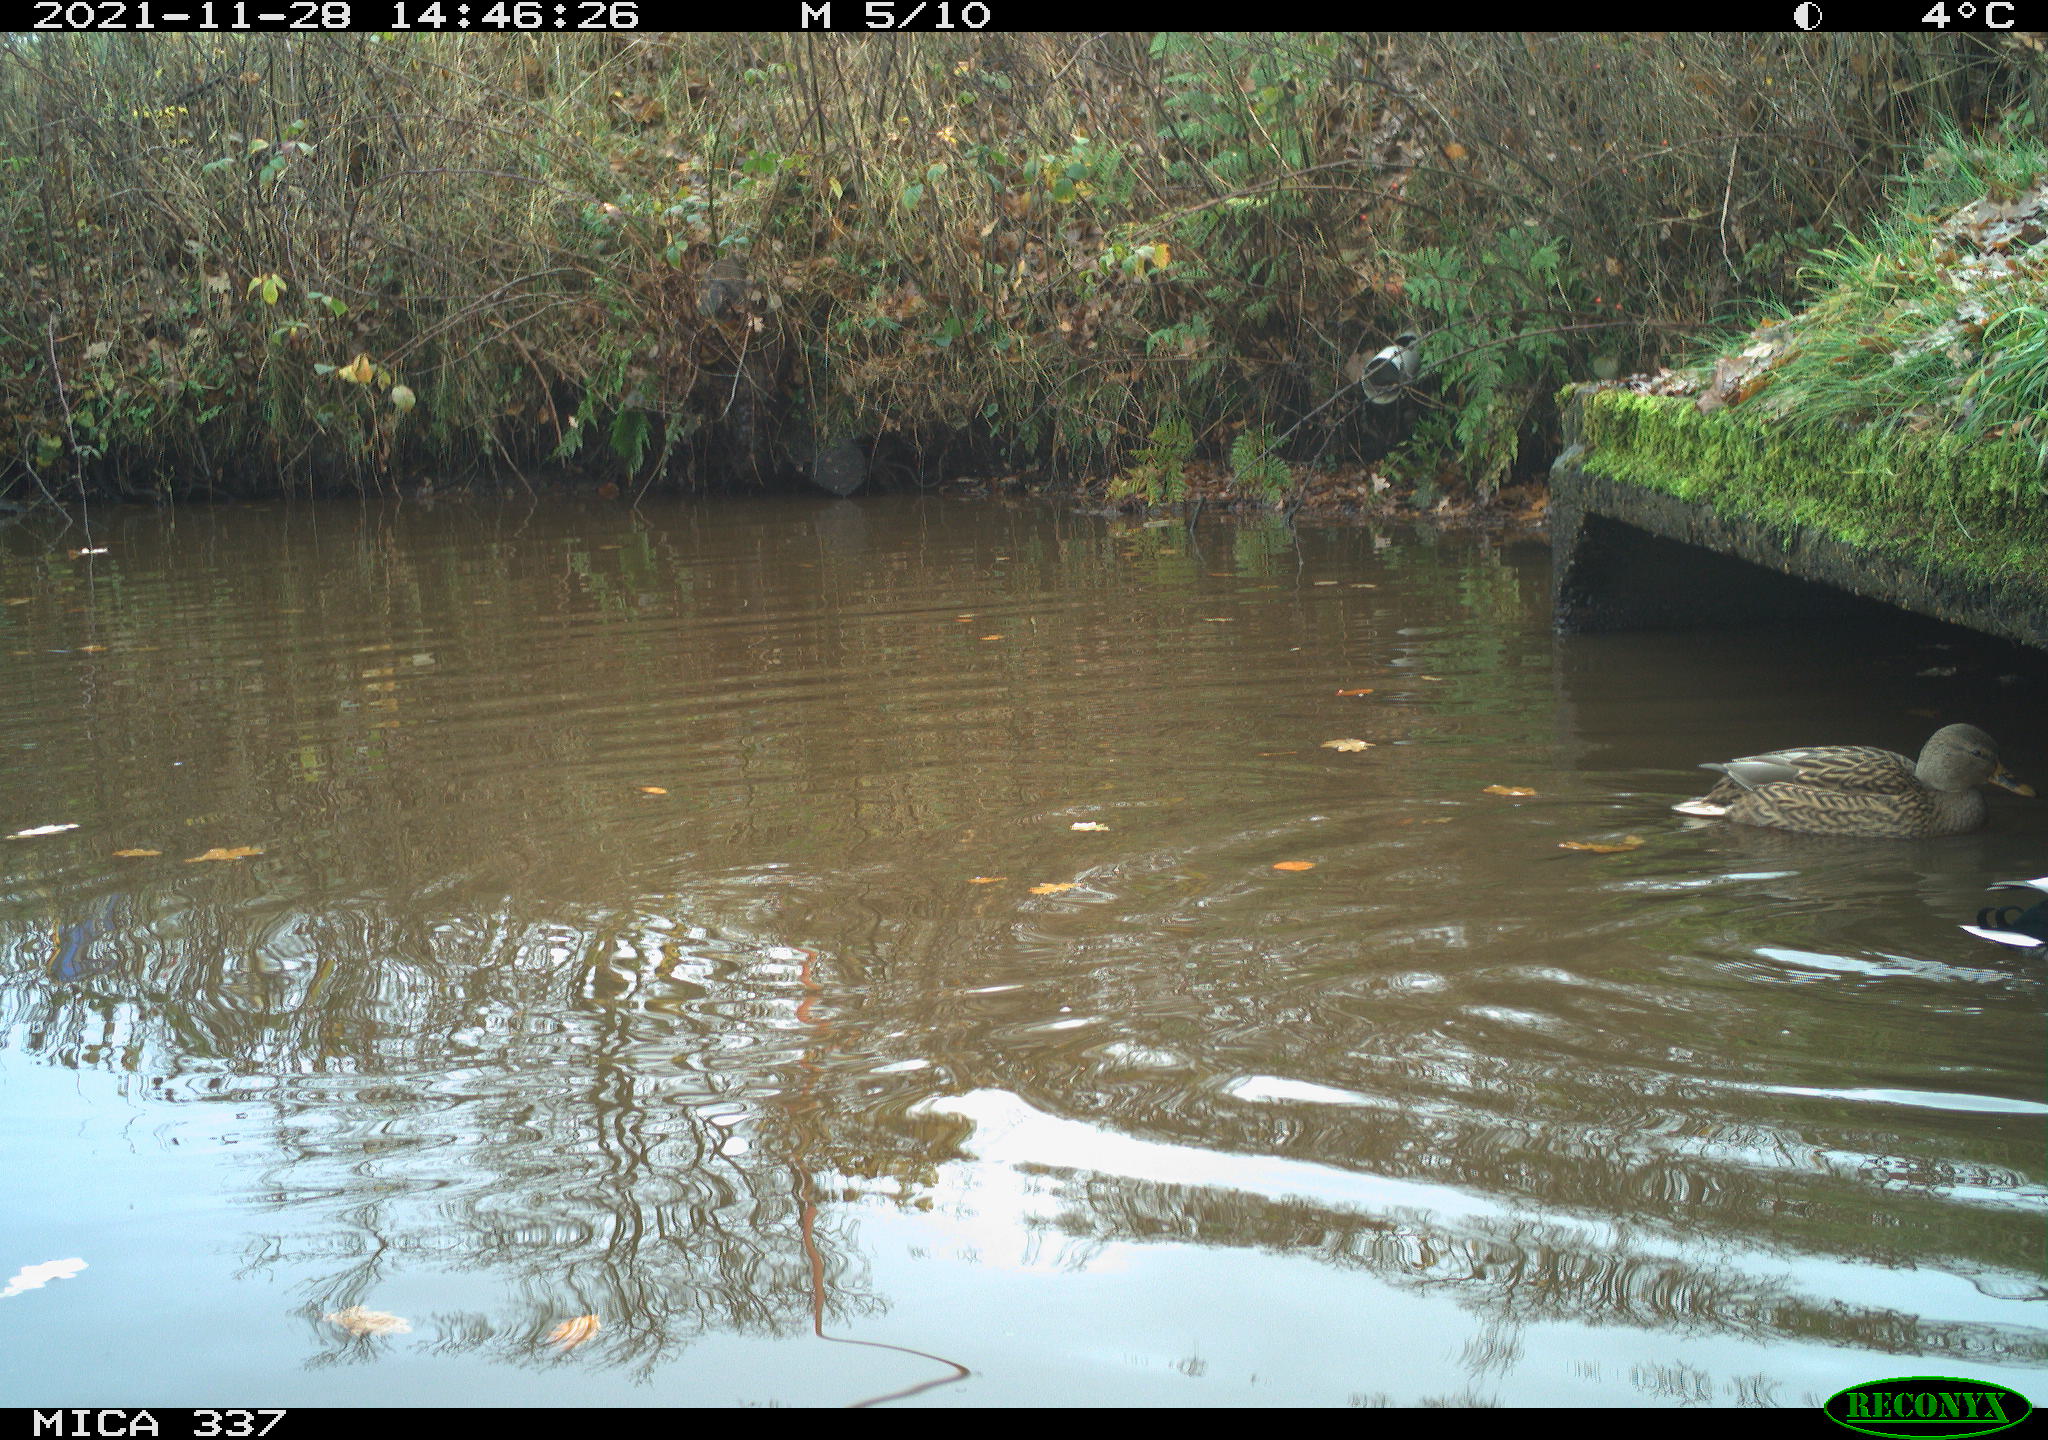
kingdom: Animalia
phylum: Chordata
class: Aves
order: Anseriformes
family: Anatidae
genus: Anas
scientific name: Anas platyrhynchos
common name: Mallard
